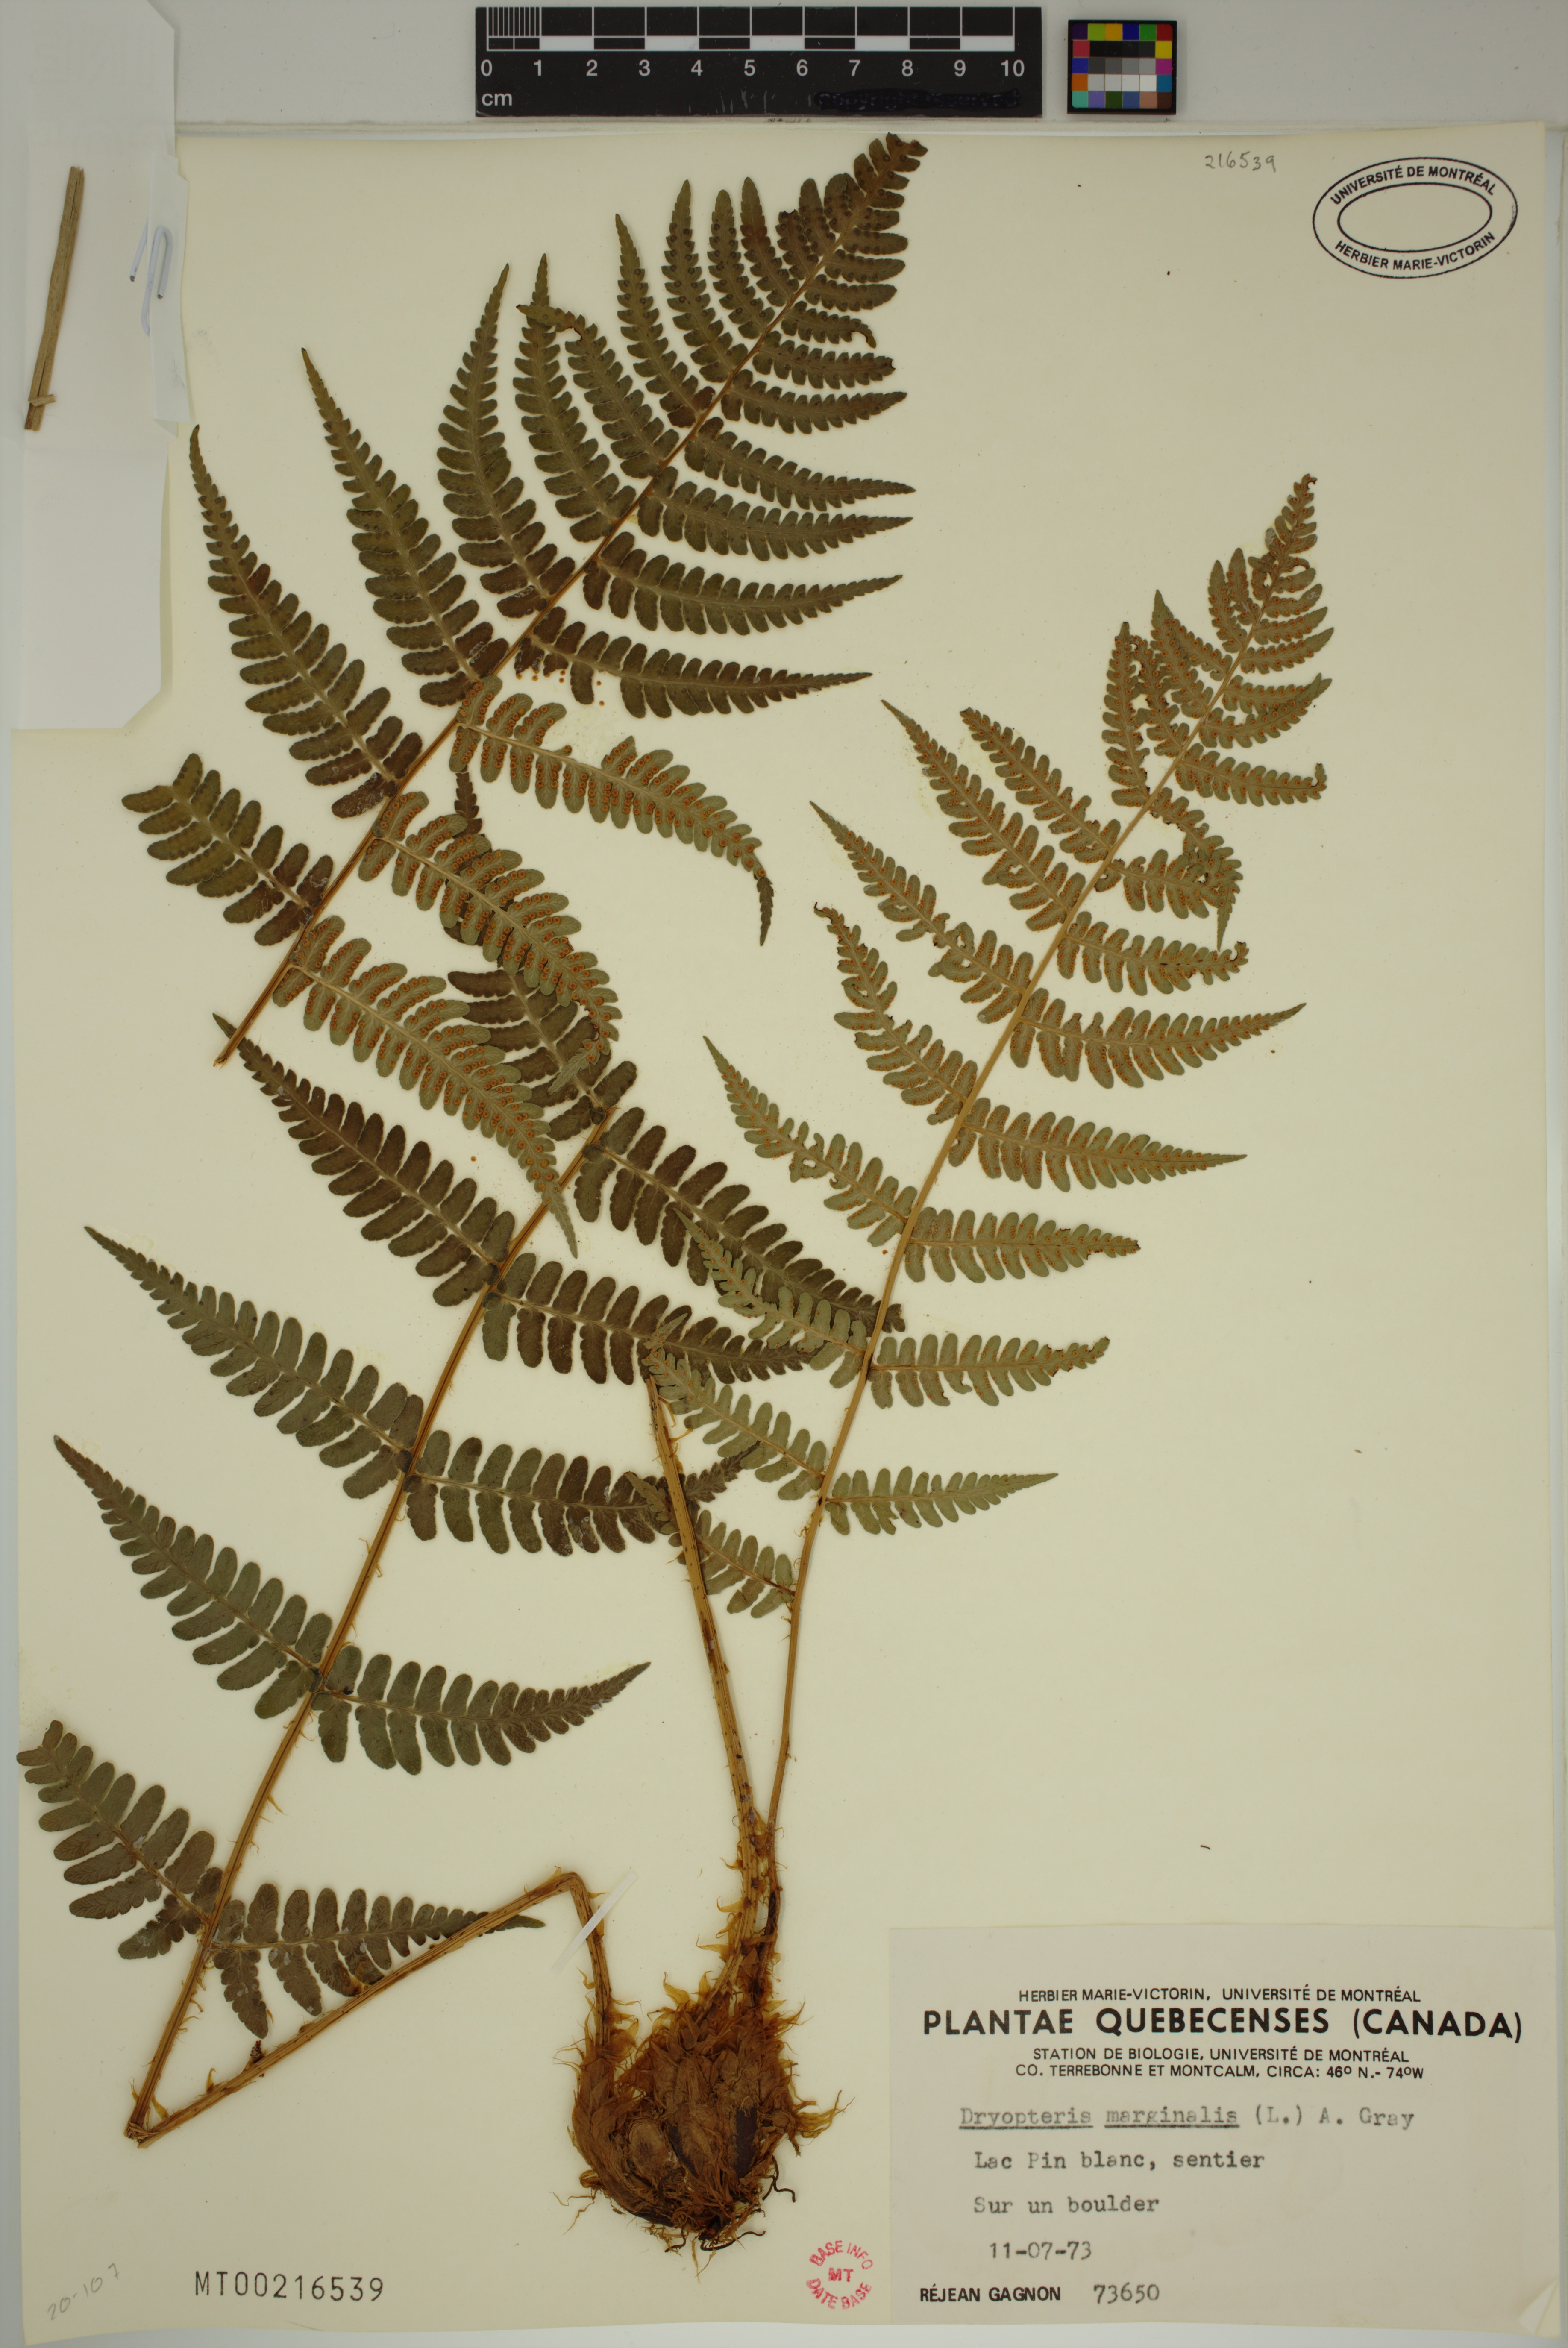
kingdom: Plantae
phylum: Tracheophyta
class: Polypodiopsida
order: Polypodiales
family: Dryopteridaceae
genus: Dryopteris
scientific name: Dryopteris marginalis
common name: Marginal wood fern
